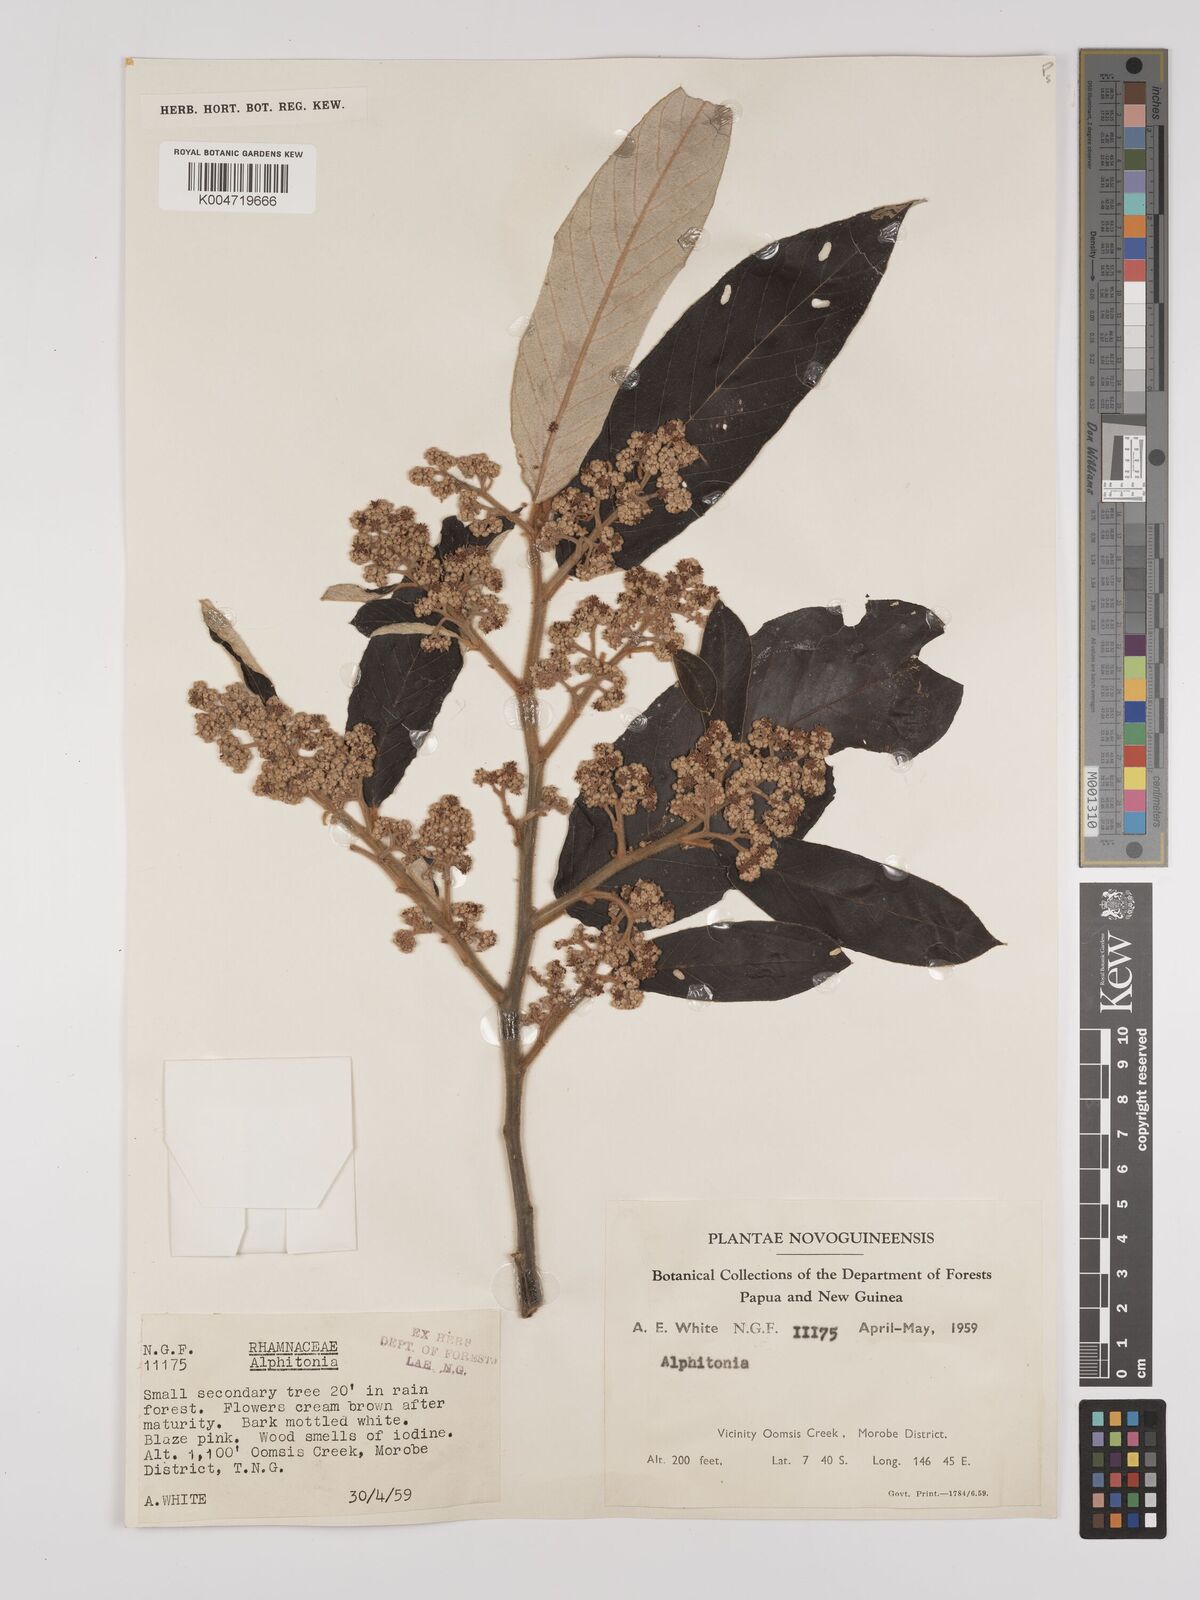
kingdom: Plantae
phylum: Tracheophyta
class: Magnoliopsida
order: Rosales
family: Rhamnaceae
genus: Alphitonia
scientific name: Alphitonia
